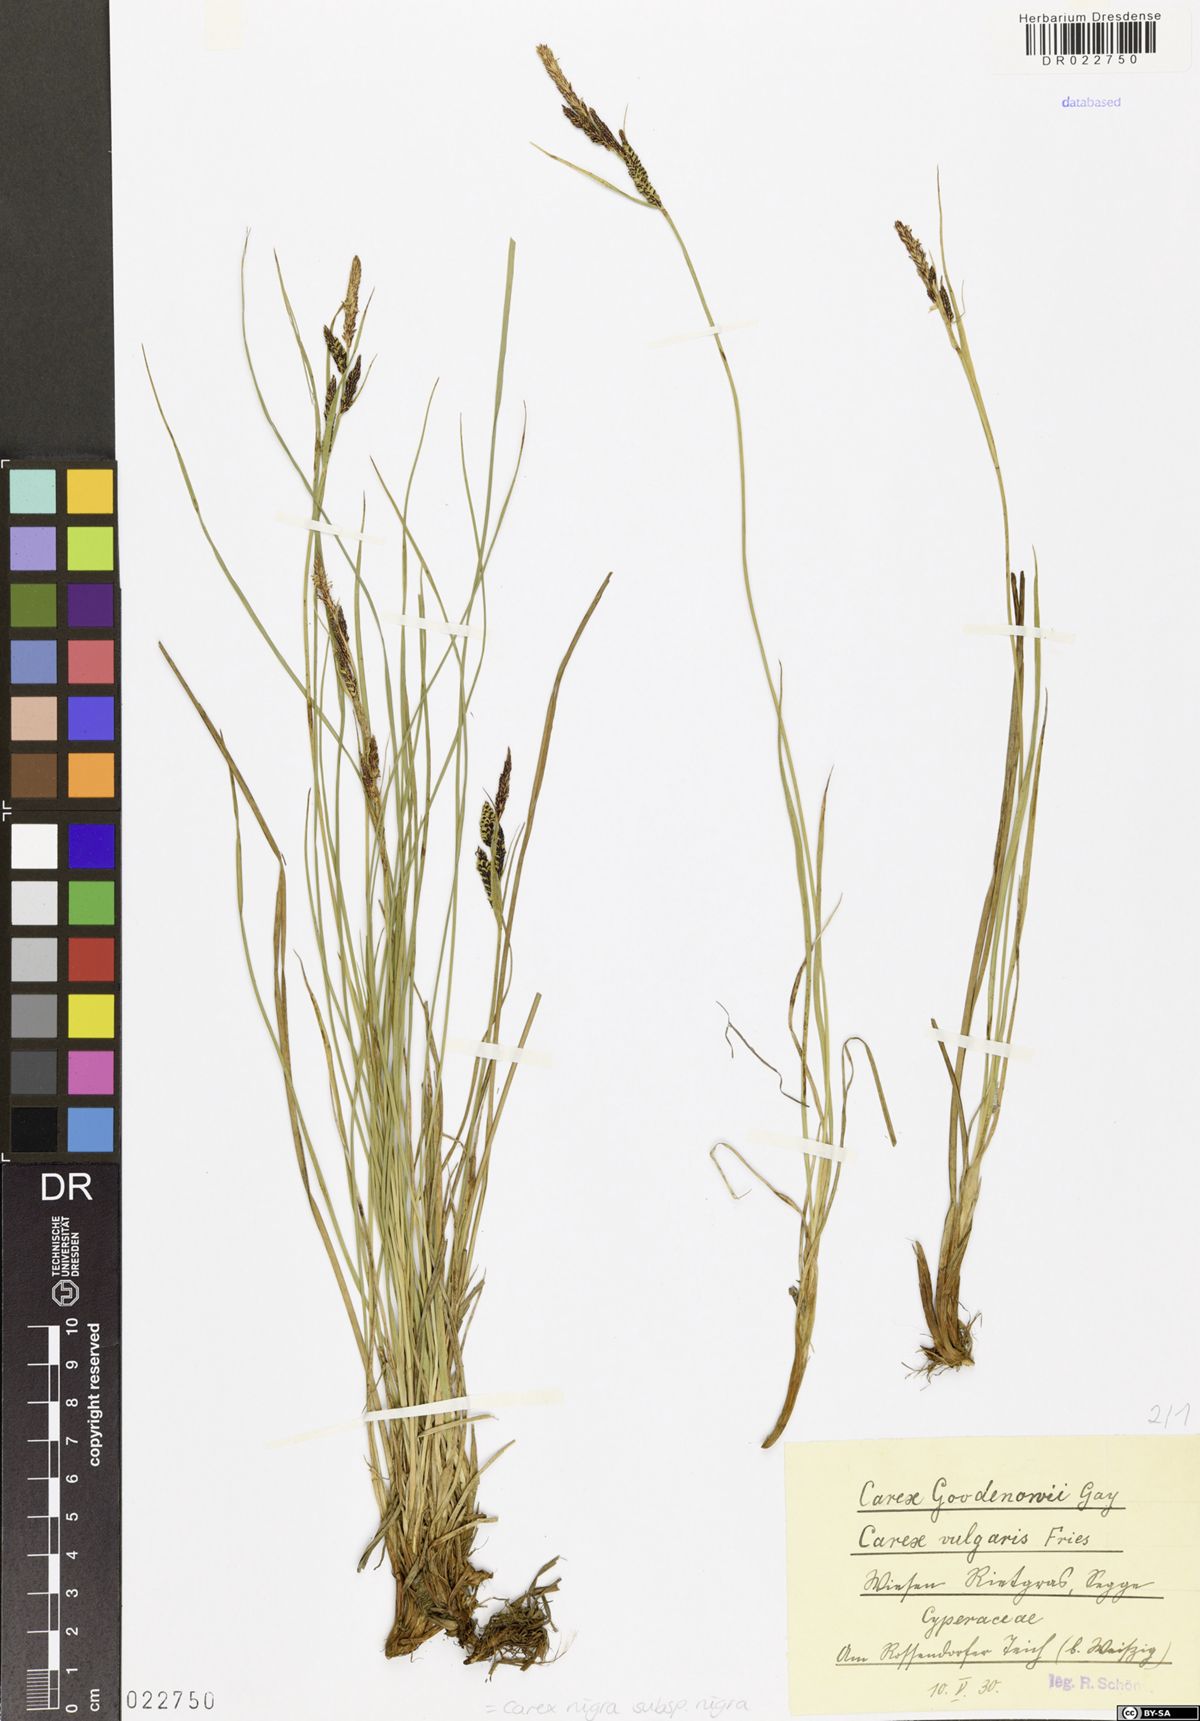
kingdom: Plantae
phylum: Tracheophyta
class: Liliopsida
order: Poales
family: Cyperaceae
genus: Carex
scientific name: Carex nigra
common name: Common sedge
